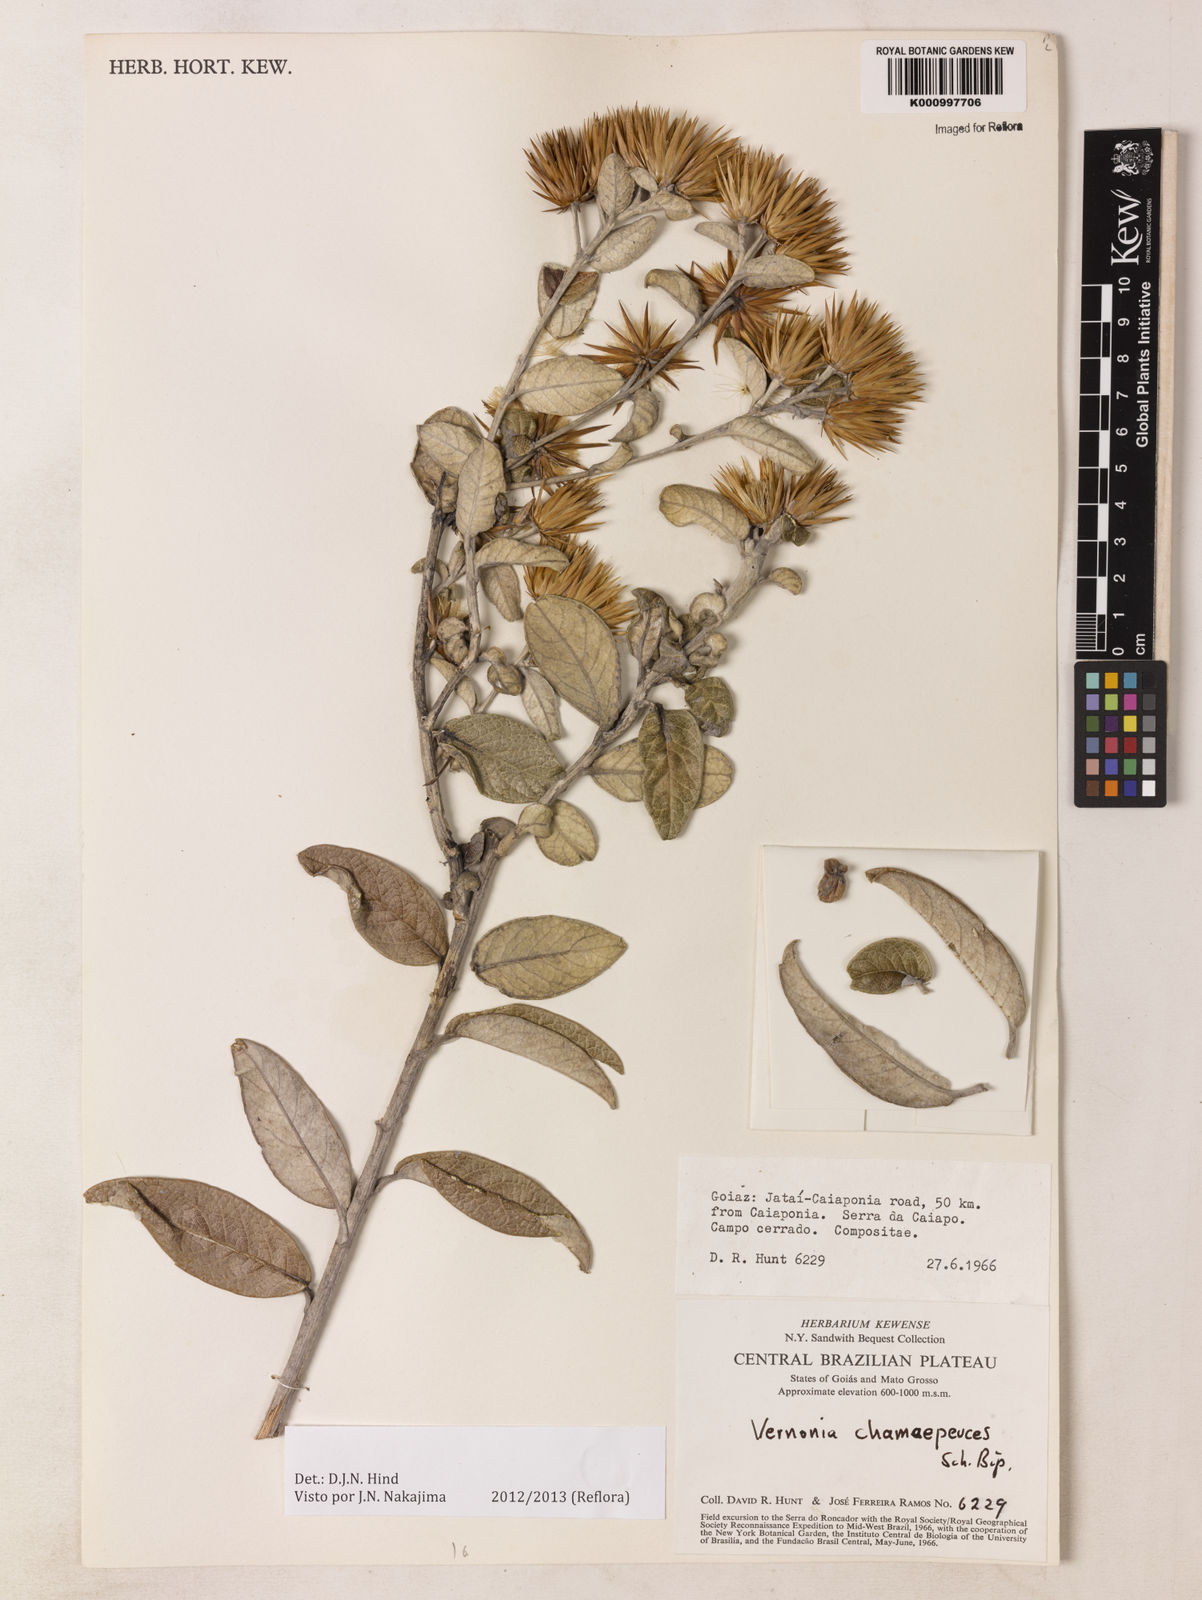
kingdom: Plantae
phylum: Tracheophyta
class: Magnoliopsida
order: Asterales
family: Asteraceae
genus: Lessingianthus
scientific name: Lessingianthus chamaepeuces
